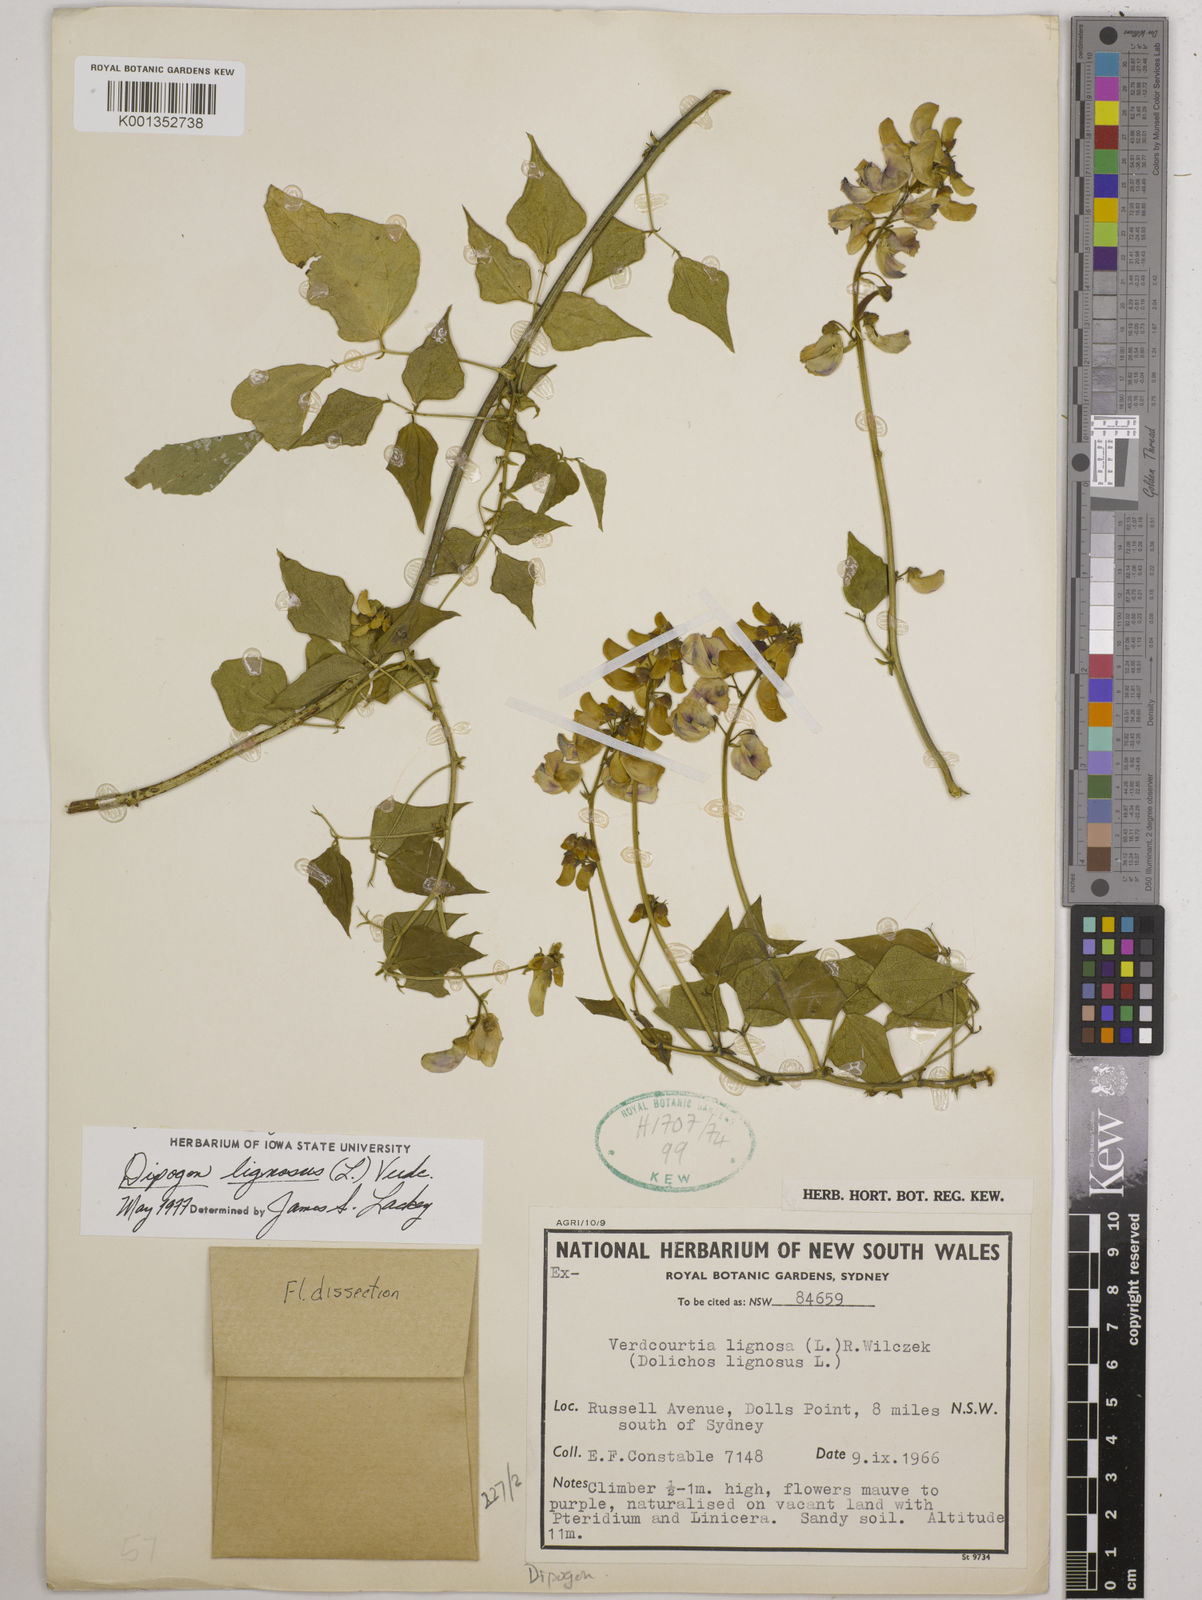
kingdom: Plantae
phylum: Tracheophyta
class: Magnoliopsida
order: Fabales
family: Fabaceae
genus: Dipogon
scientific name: Dipogon lignosus
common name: Okie bean
